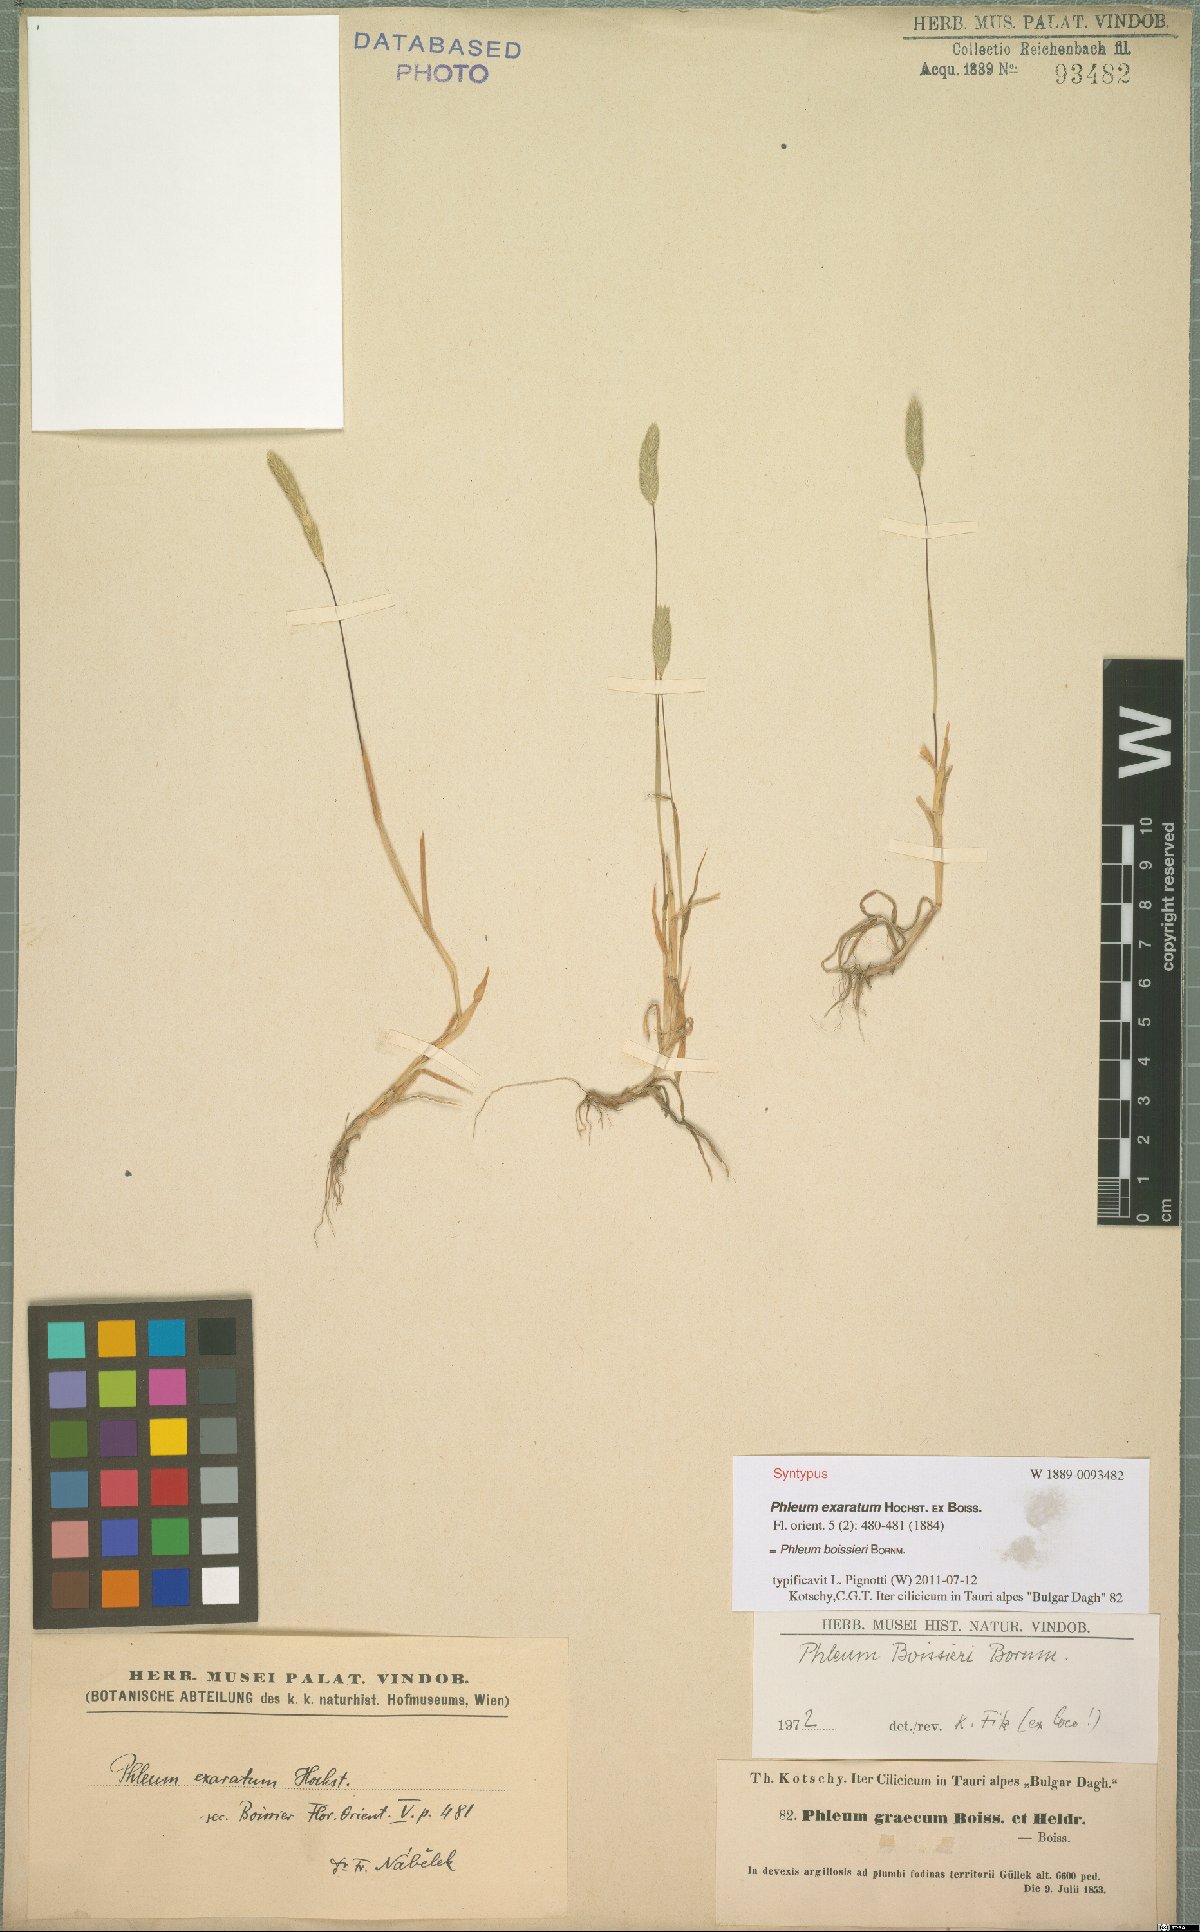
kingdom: Plantae
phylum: Tracheophyta
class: Liliopsida
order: Poales
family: Poaceae
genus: Phleum
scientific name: Phleum boissieri
